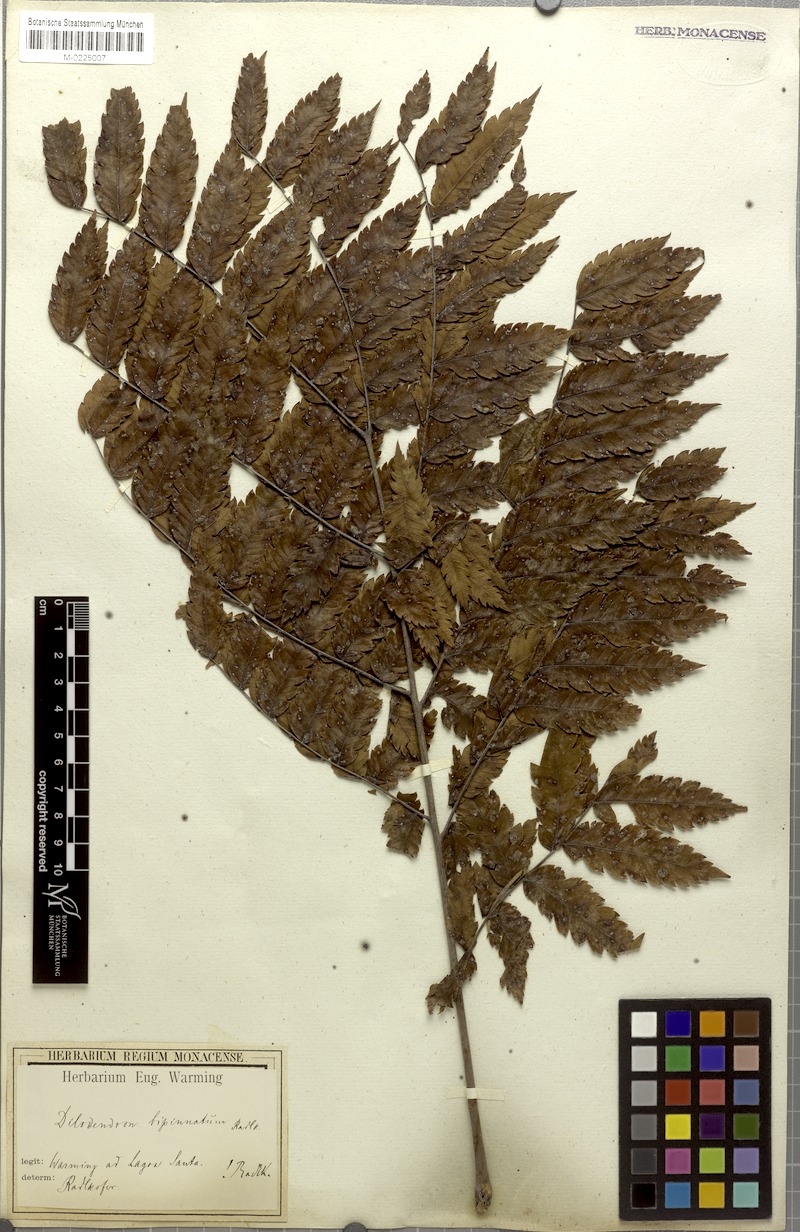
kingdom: Plantae
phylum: Tracheophyta
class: Magnoliopsida
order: Sapindales
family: Sapindaceae
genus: Dilodendron
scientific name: Dilodendron bipinnatum
